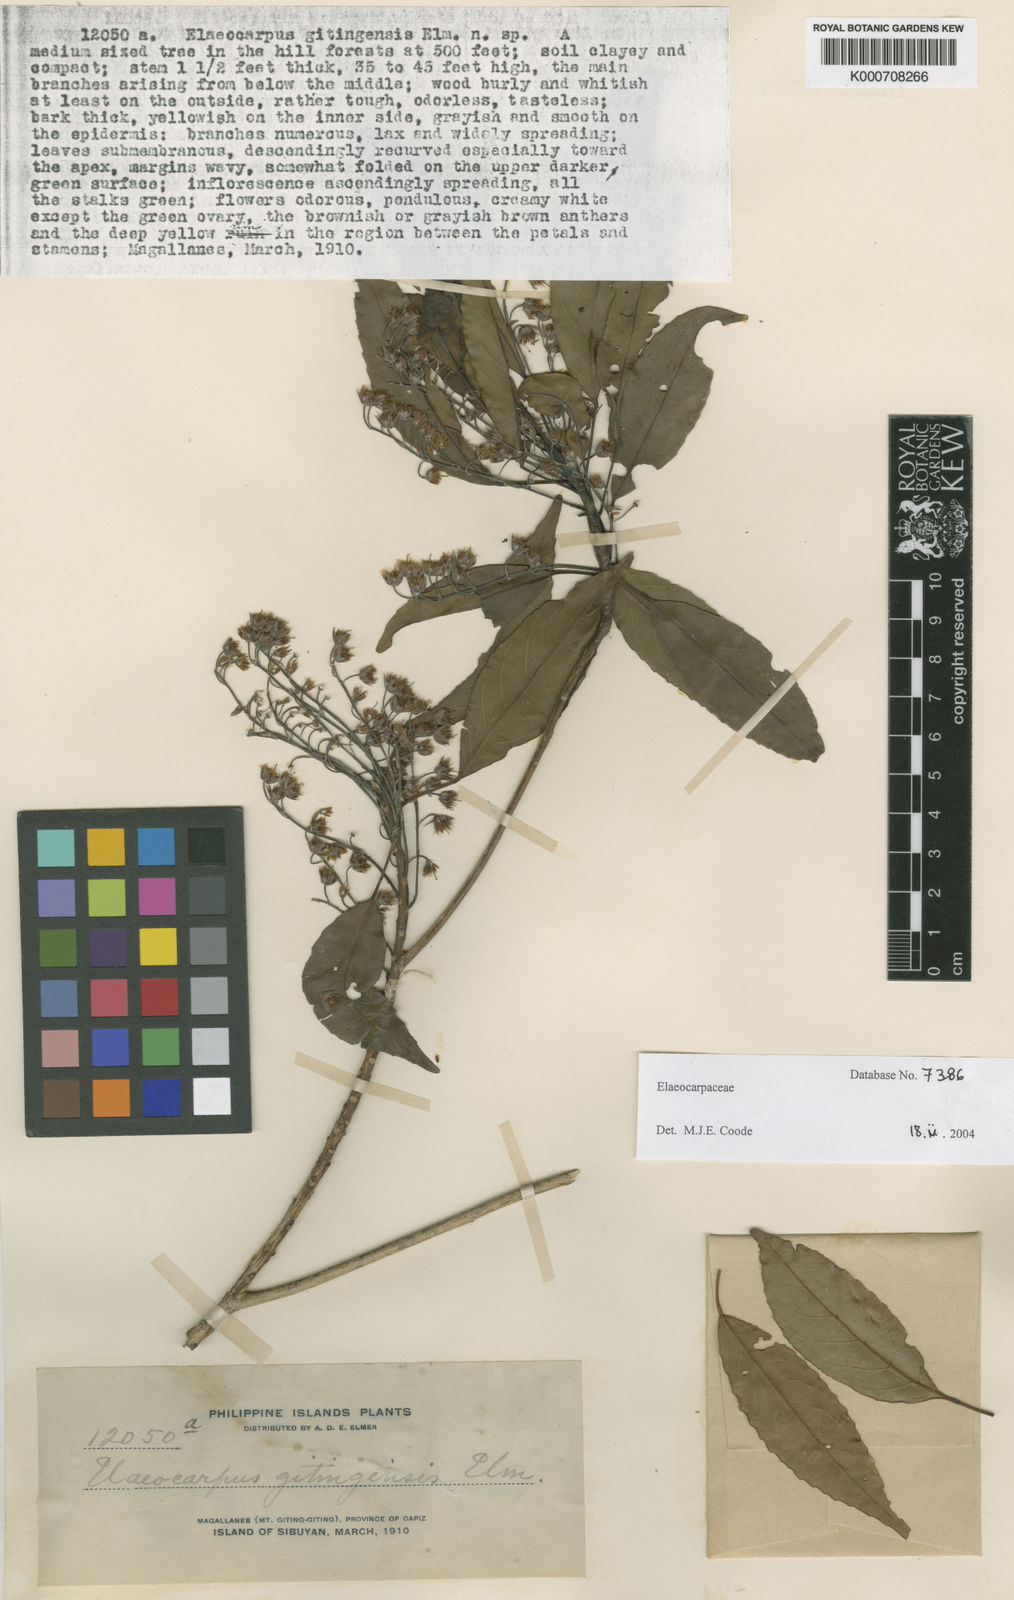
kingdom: Plantae
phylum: Tracheophyta
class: Magnoliopsida
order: Oxalidales
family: Elaeocarpaceae
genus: Elaeocarpus
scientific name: Elaeocarpus gitingensis
